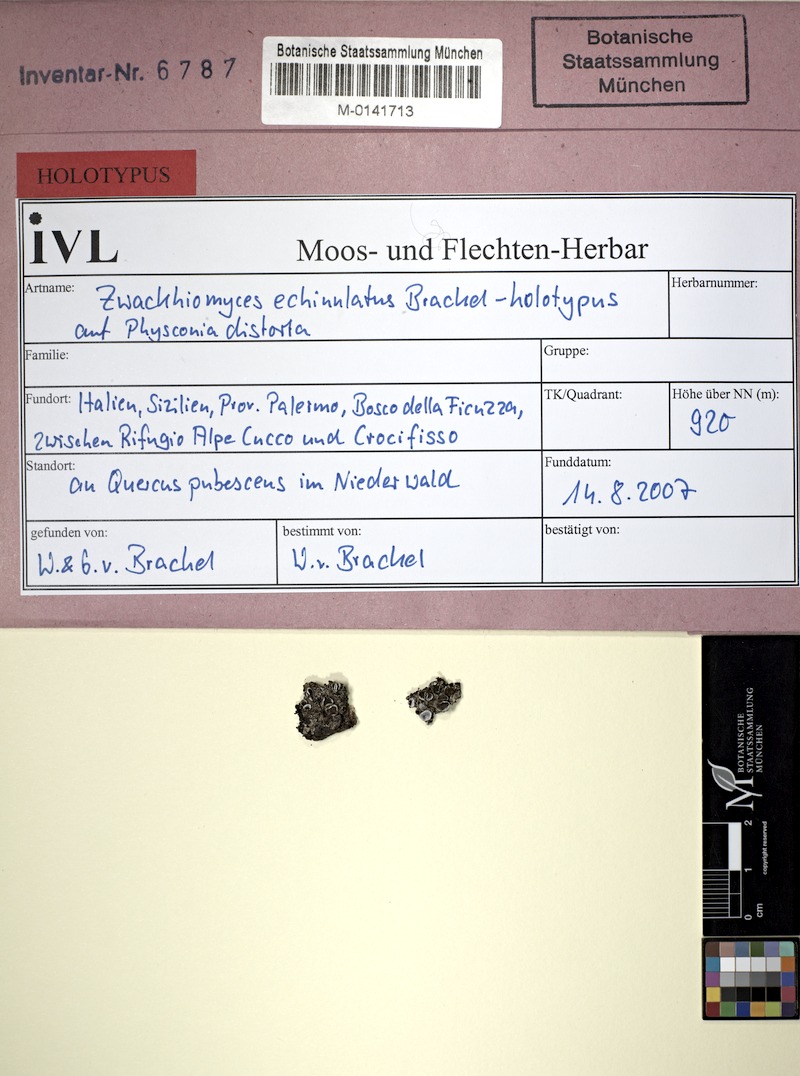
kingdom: Fungi
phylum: Ascomycota
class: Dothideomycetes
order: Collemopsidiales
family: Xanthopyreniaceae
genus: Zwackhiomyces
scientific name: Zwackhiomyces echinulatus
